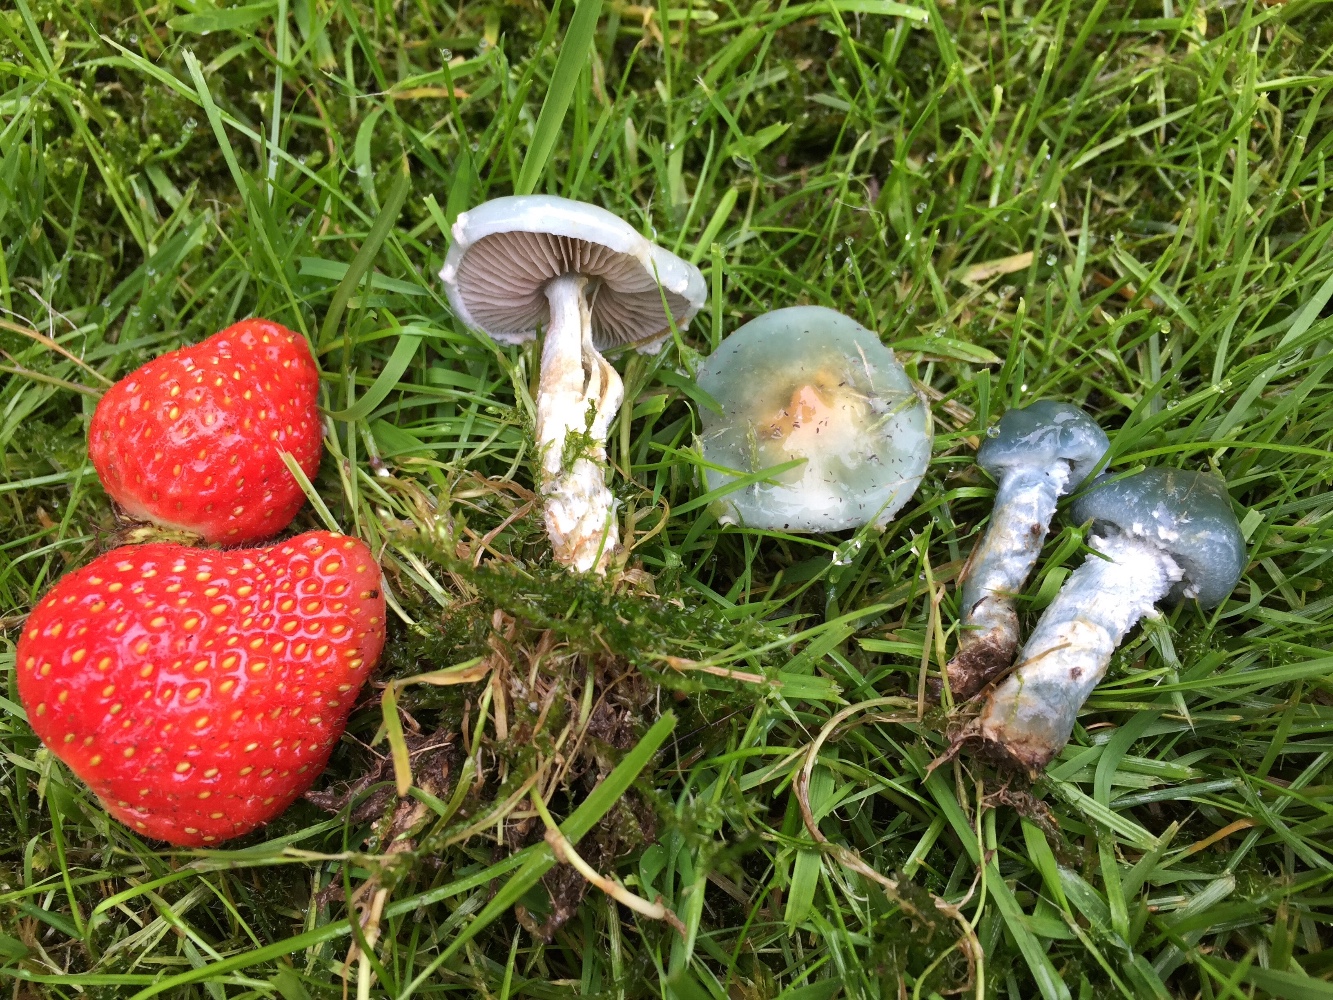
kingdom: Fungi
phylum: Basidiomycota
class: Agaricomycetes
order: Agaricales
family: Strophariaceae
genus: Stropharia
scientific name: Stropharia cyanea
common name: blågrøn bredblad
